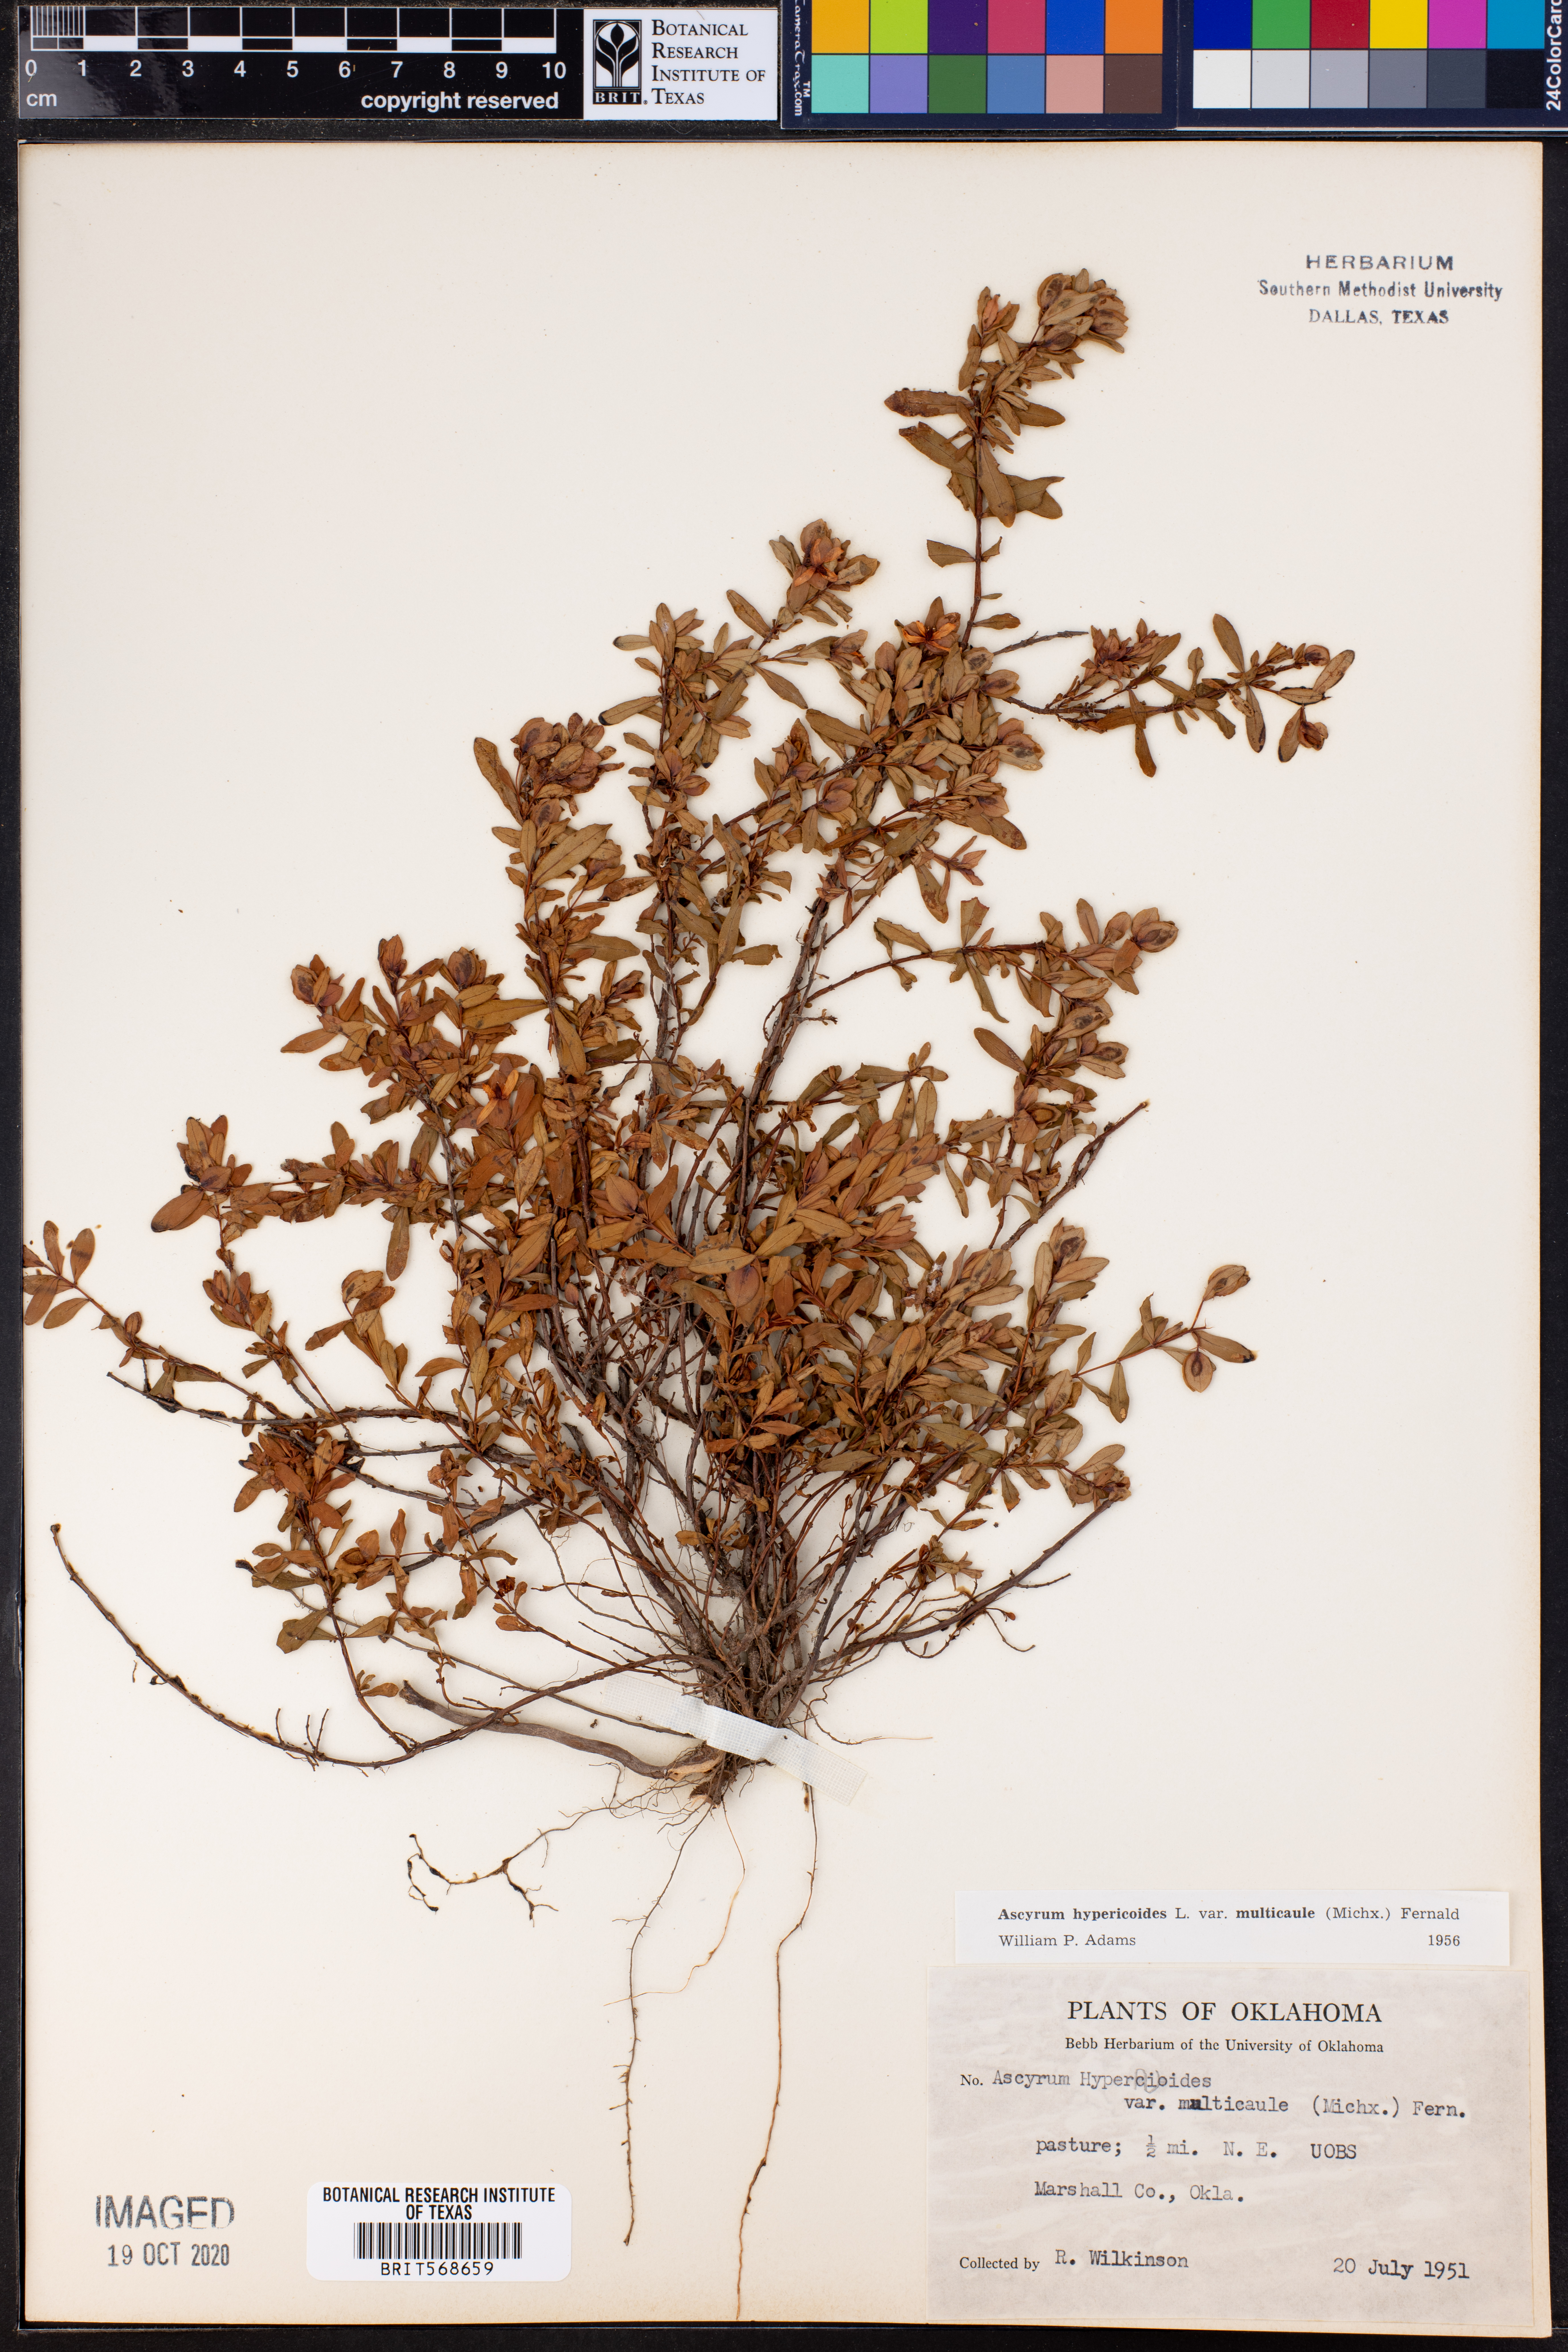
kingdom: Plantae
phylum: Tracheophyta
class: Magnoliopsida
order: Malpighiales
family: Hypericaceae
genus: Hypericum
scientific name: Hypericum hypericoides
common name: St. andrew's cross
